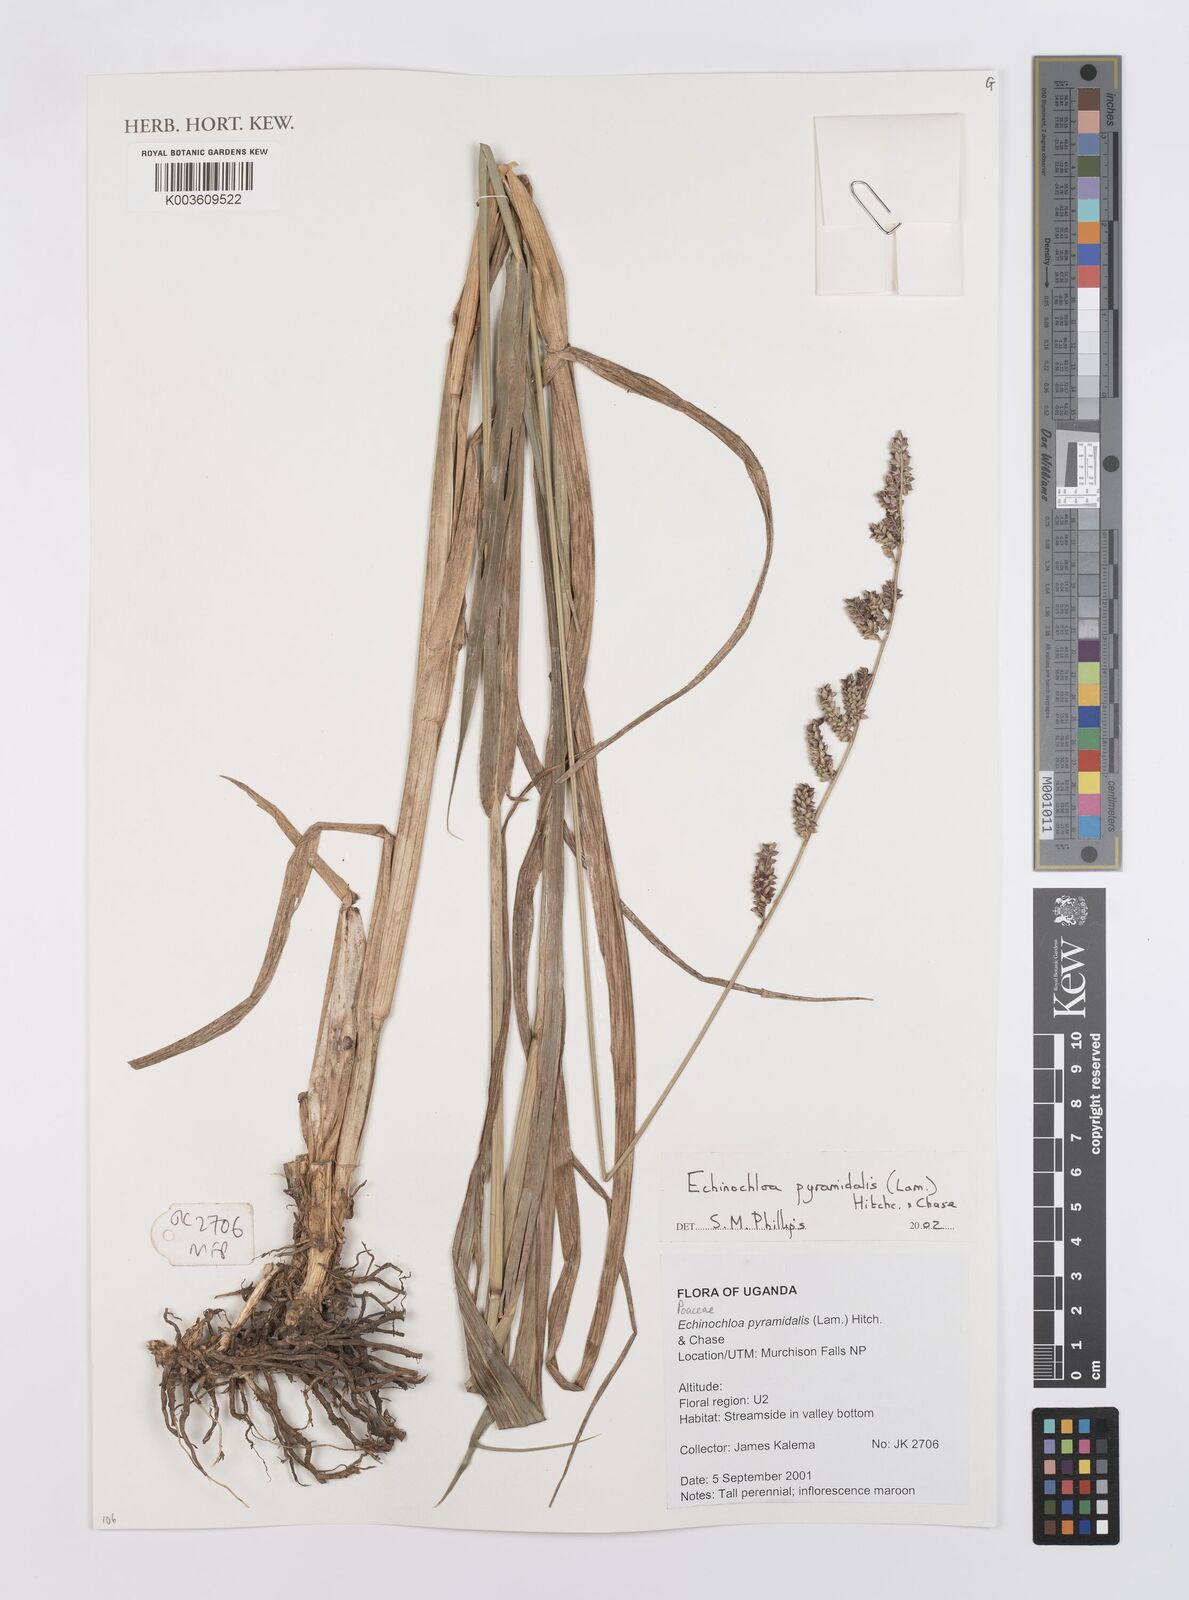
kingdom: Plantae
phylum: Tracheophyta
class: Liliopsida
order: Poales
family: Poaceae
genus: Echinochloa
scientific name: Echinochloa pyramidalis
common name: Antelope grass
